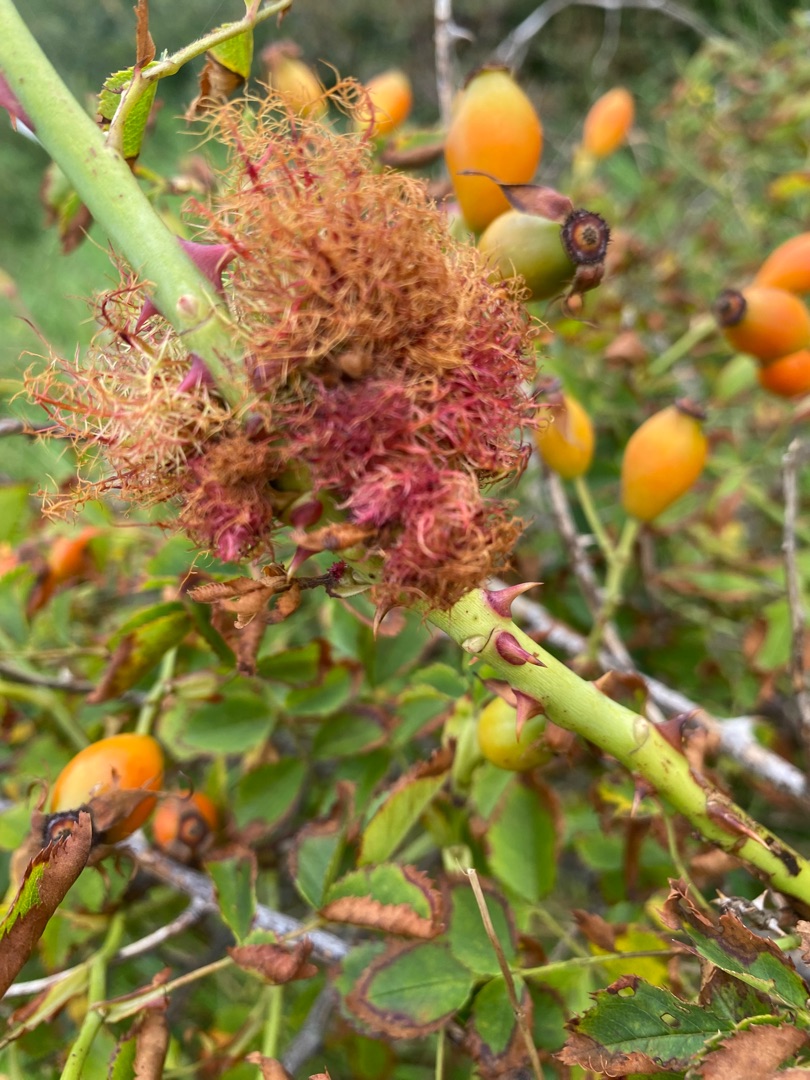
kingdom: Animalia
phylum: Arthropoda
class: Insecta
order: Hymenoptera
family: Cynipidae
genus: Diplolepis
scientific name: Diplolepis rosae
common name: Bedeguargalhveps
